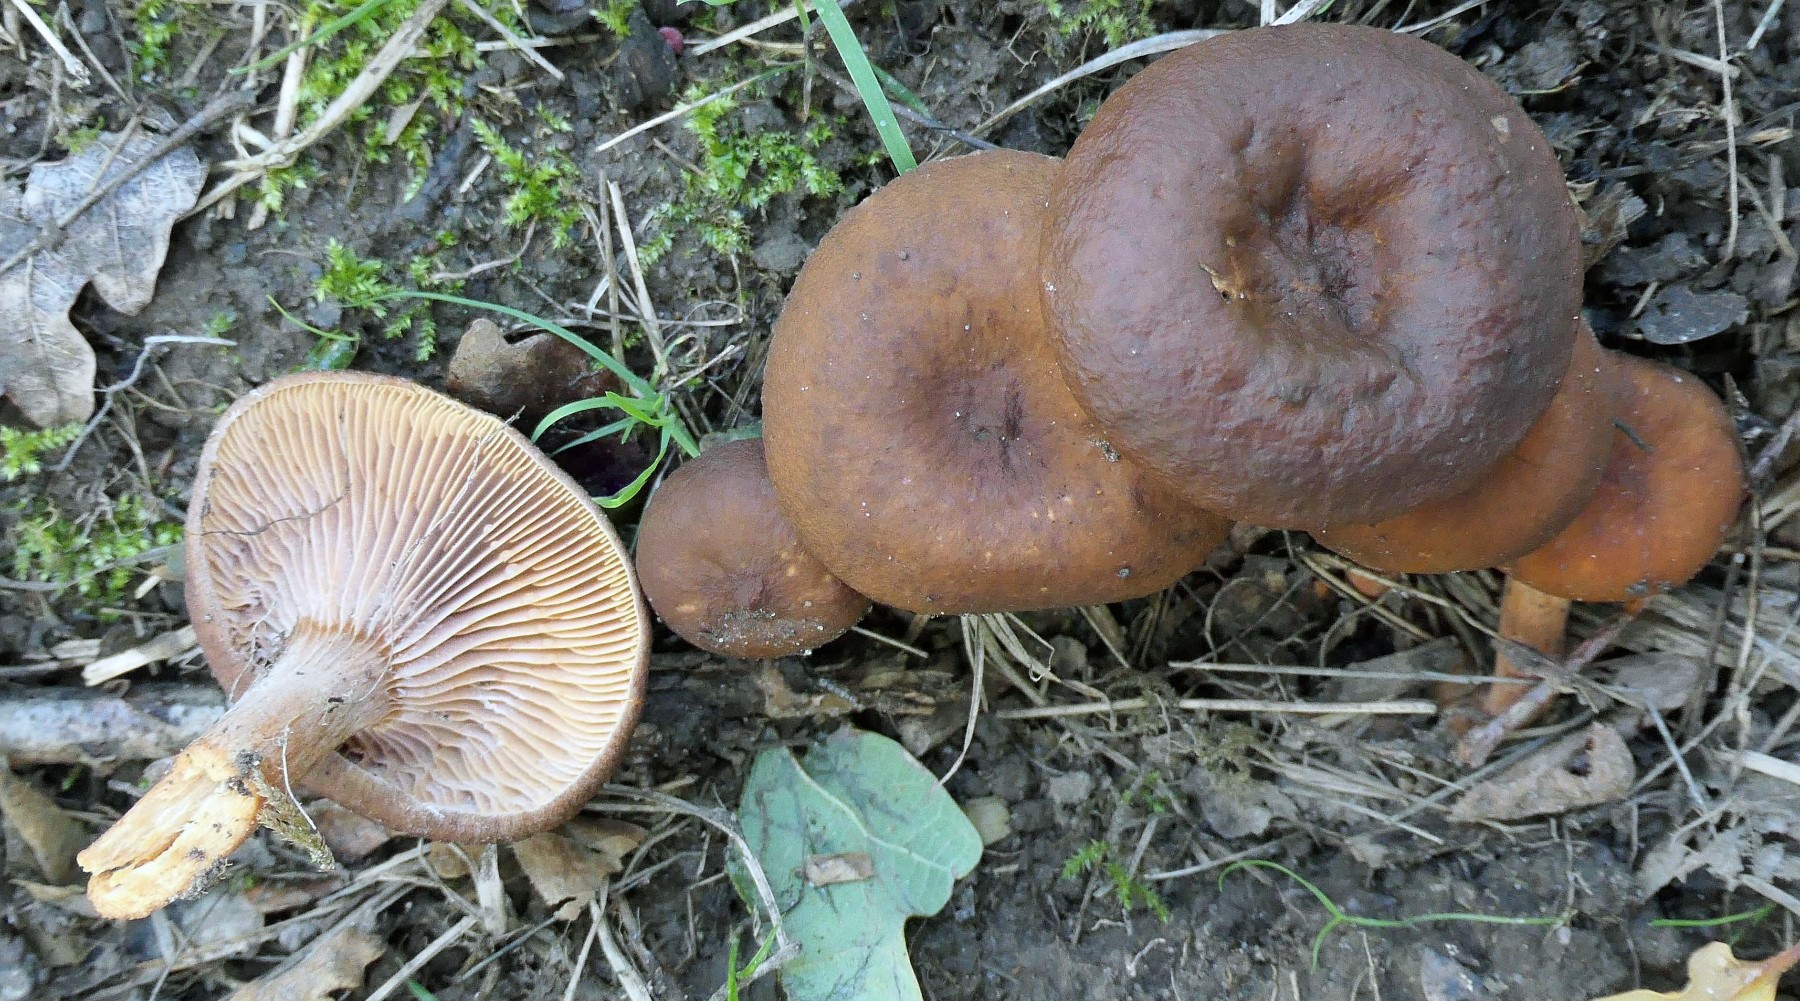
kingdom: Fungi
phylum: Basidiomycota
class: Agaricomycetes
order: Russulales
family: Russulaceae
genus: Lactarius
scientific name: Lactarius serifluus
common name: tæge-mælkehat
